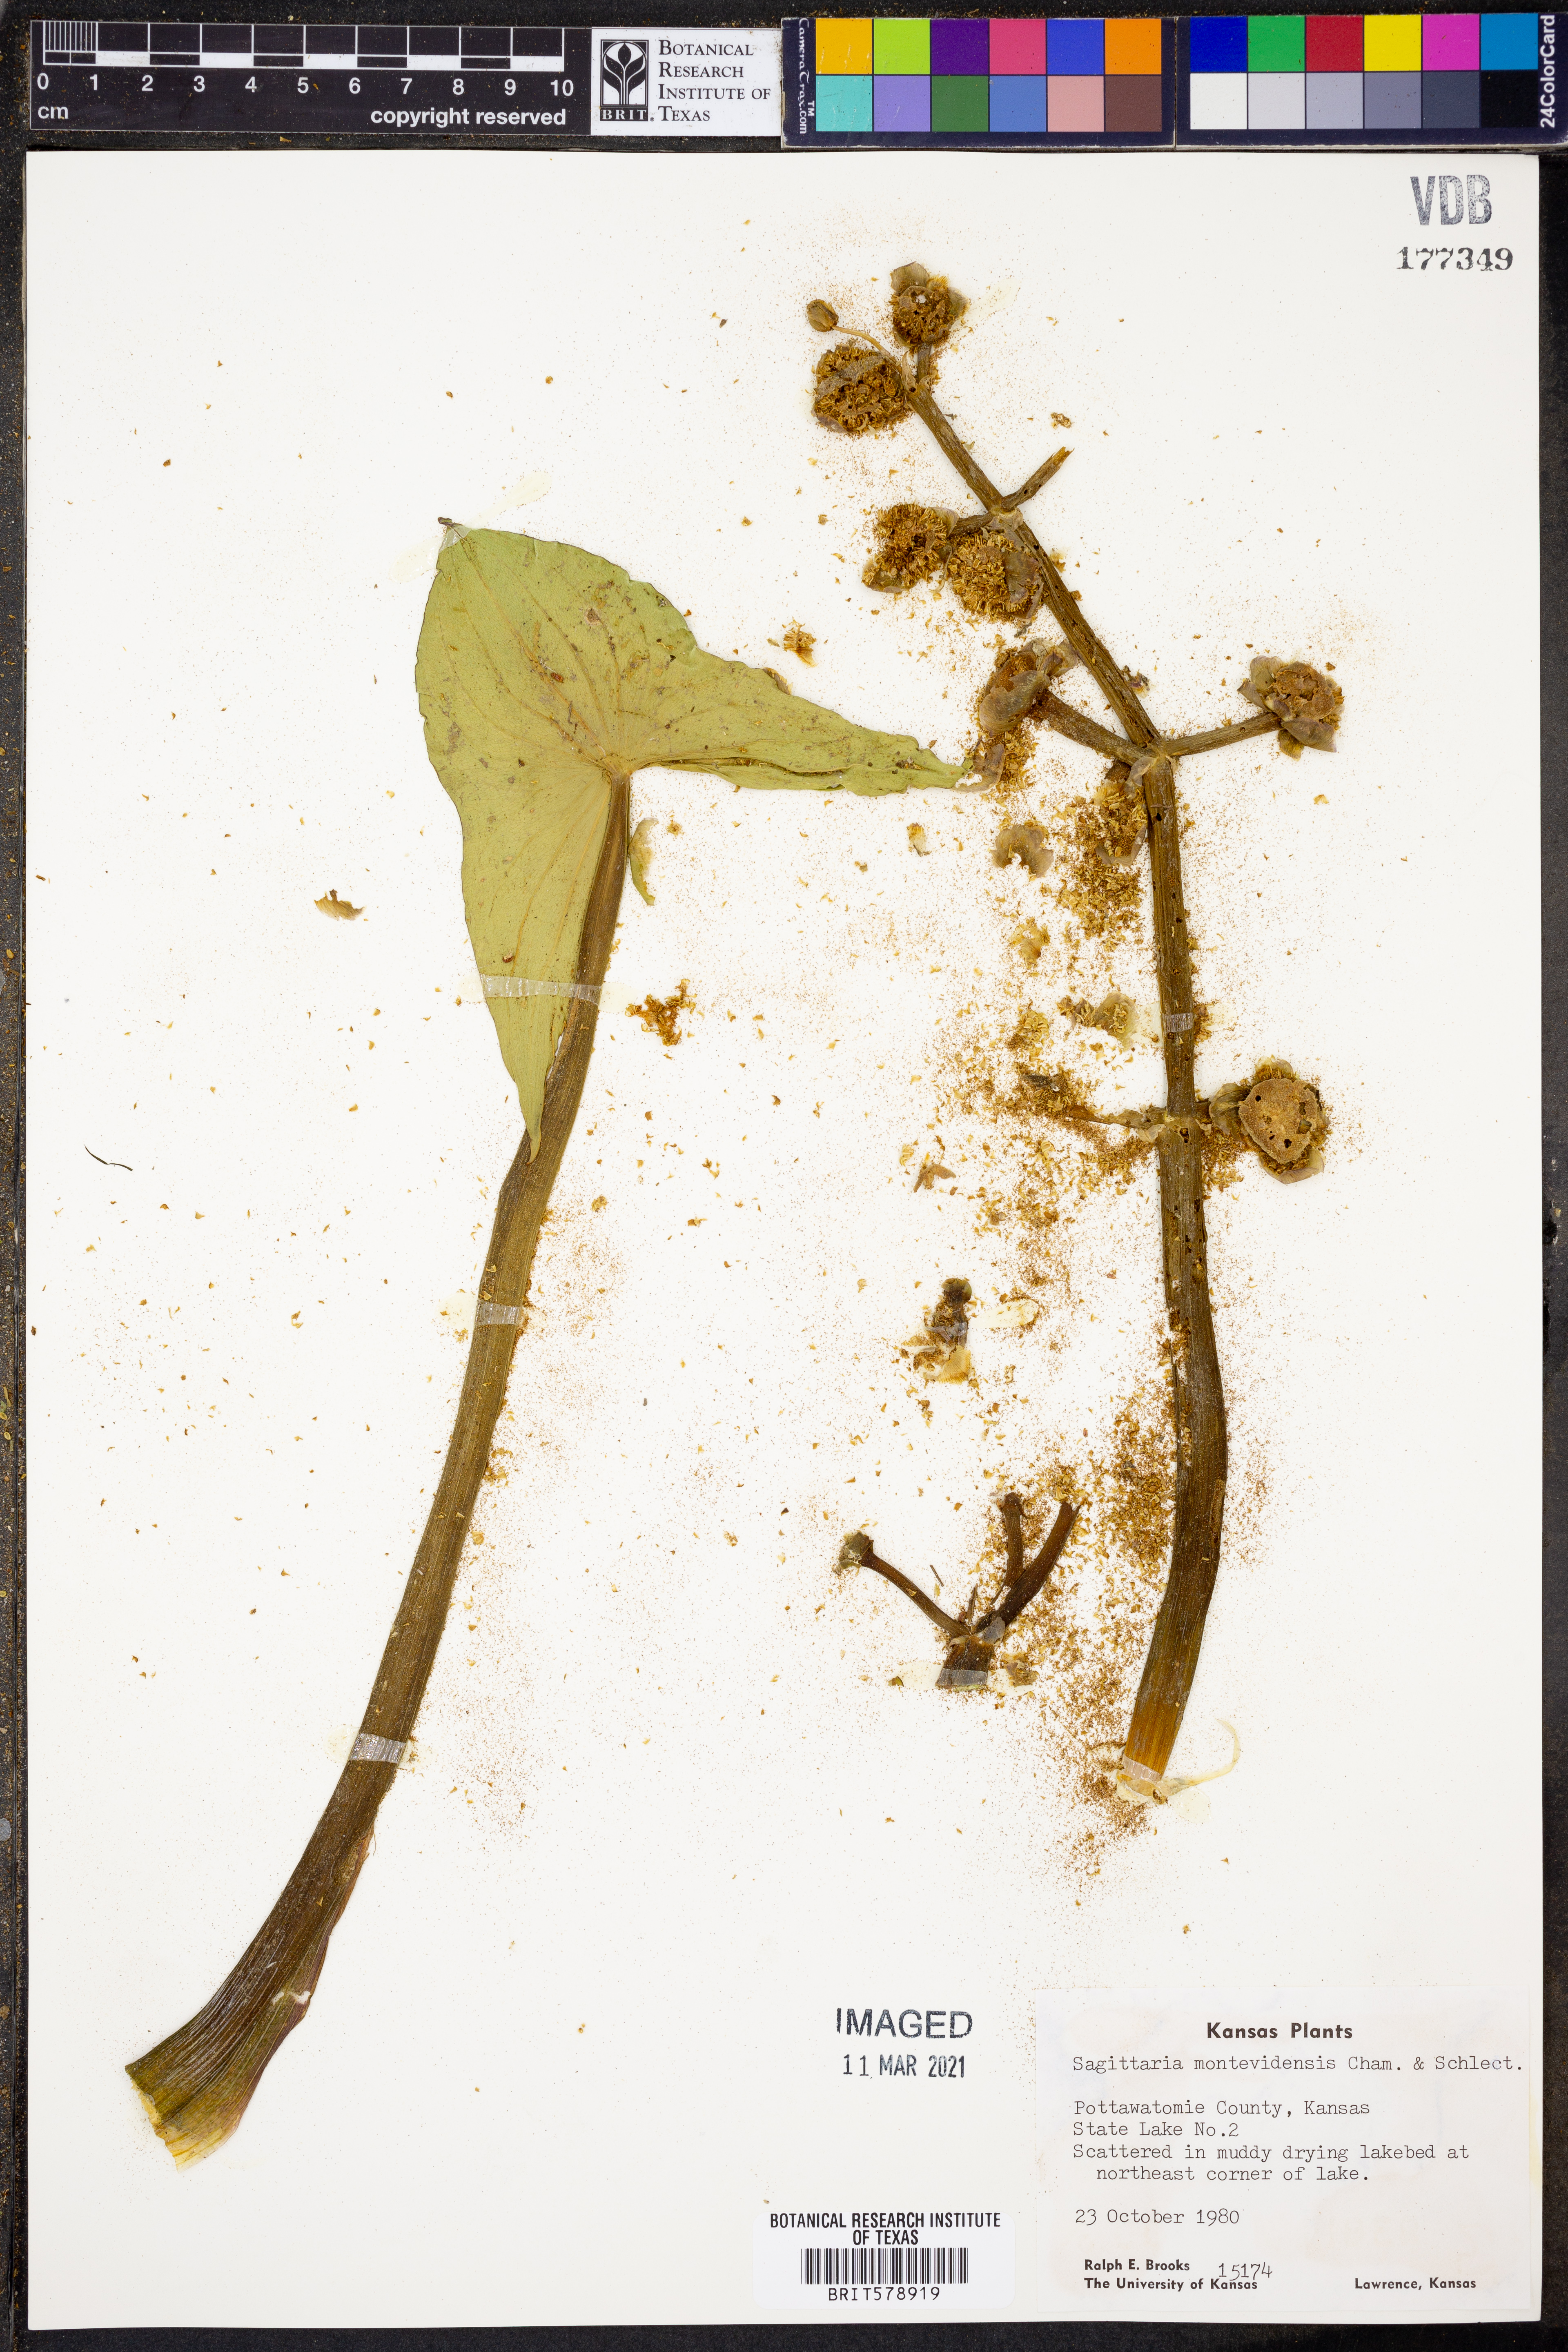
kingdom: Plantae
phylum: Tracheophyta
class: Liliopsida
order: Alismatales
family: Alismataceae
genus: Sagittaria
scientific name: Sagittaria montevidensis
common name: Giant arrowhead
